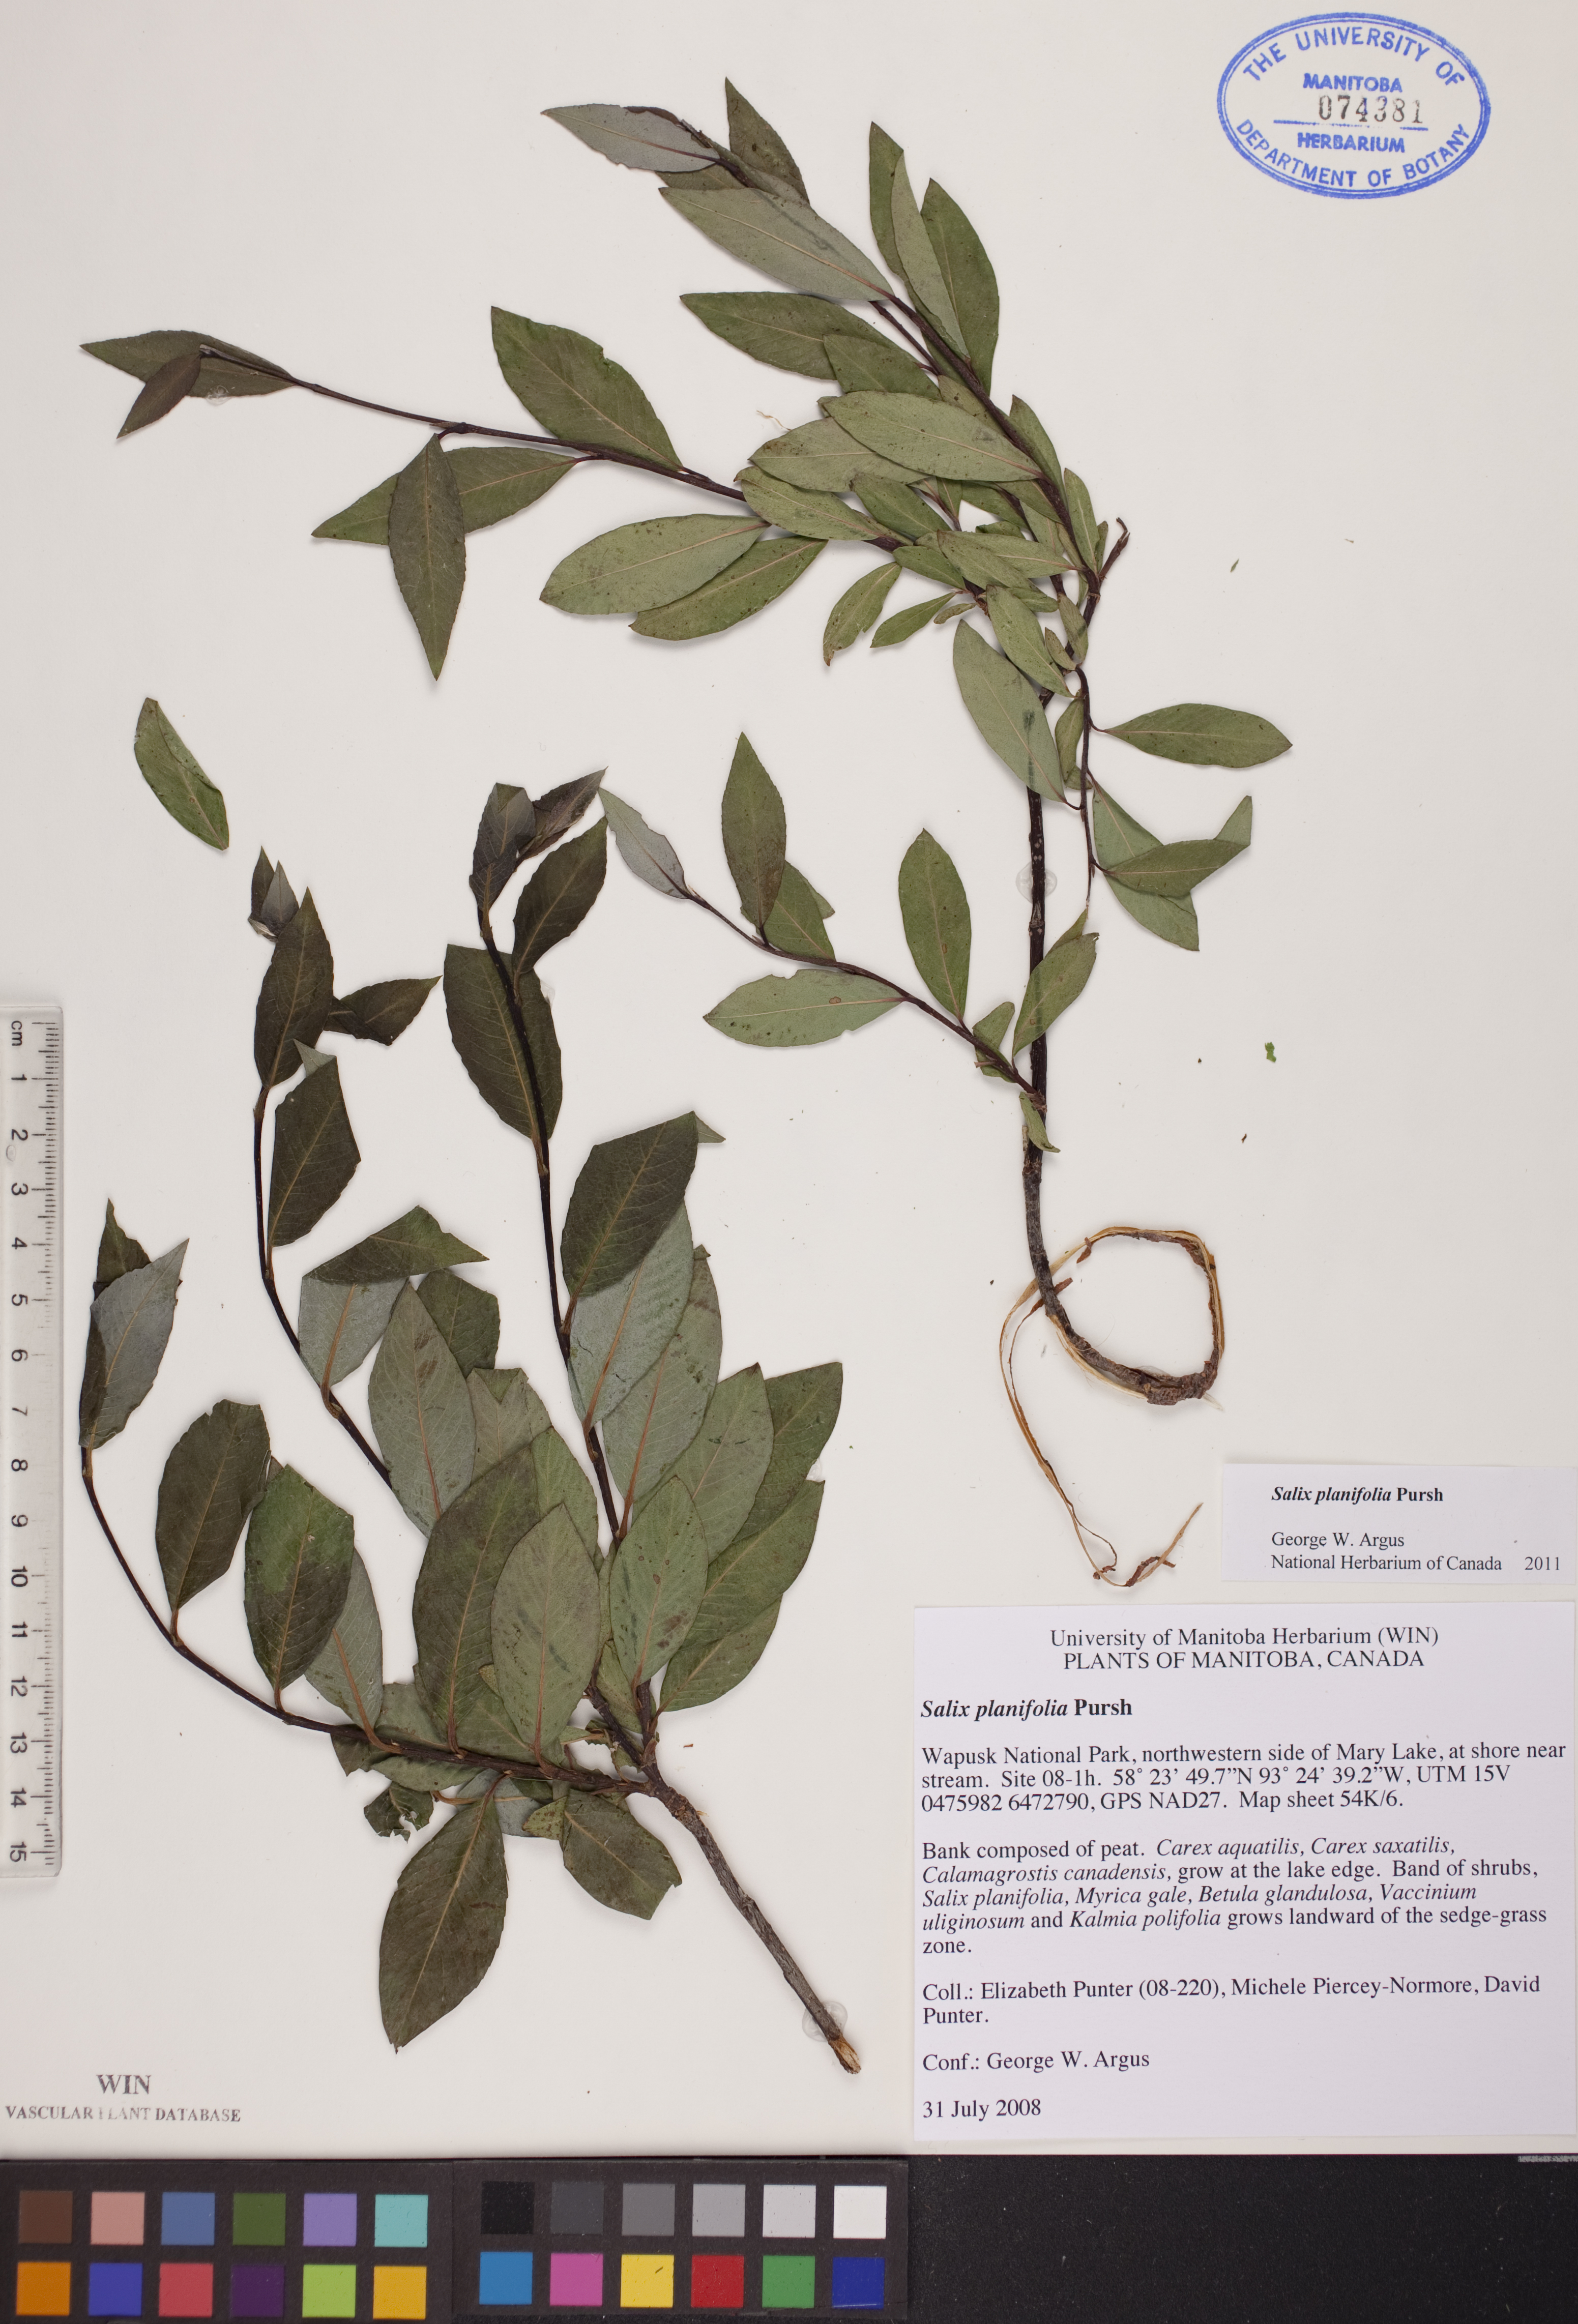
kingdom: Plantae
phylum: Tracheophyta
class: Magnoliopsida
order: Malpighiales
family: Salicaceae
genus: Salix
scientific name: Salix planifolia
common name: Mountain willow
